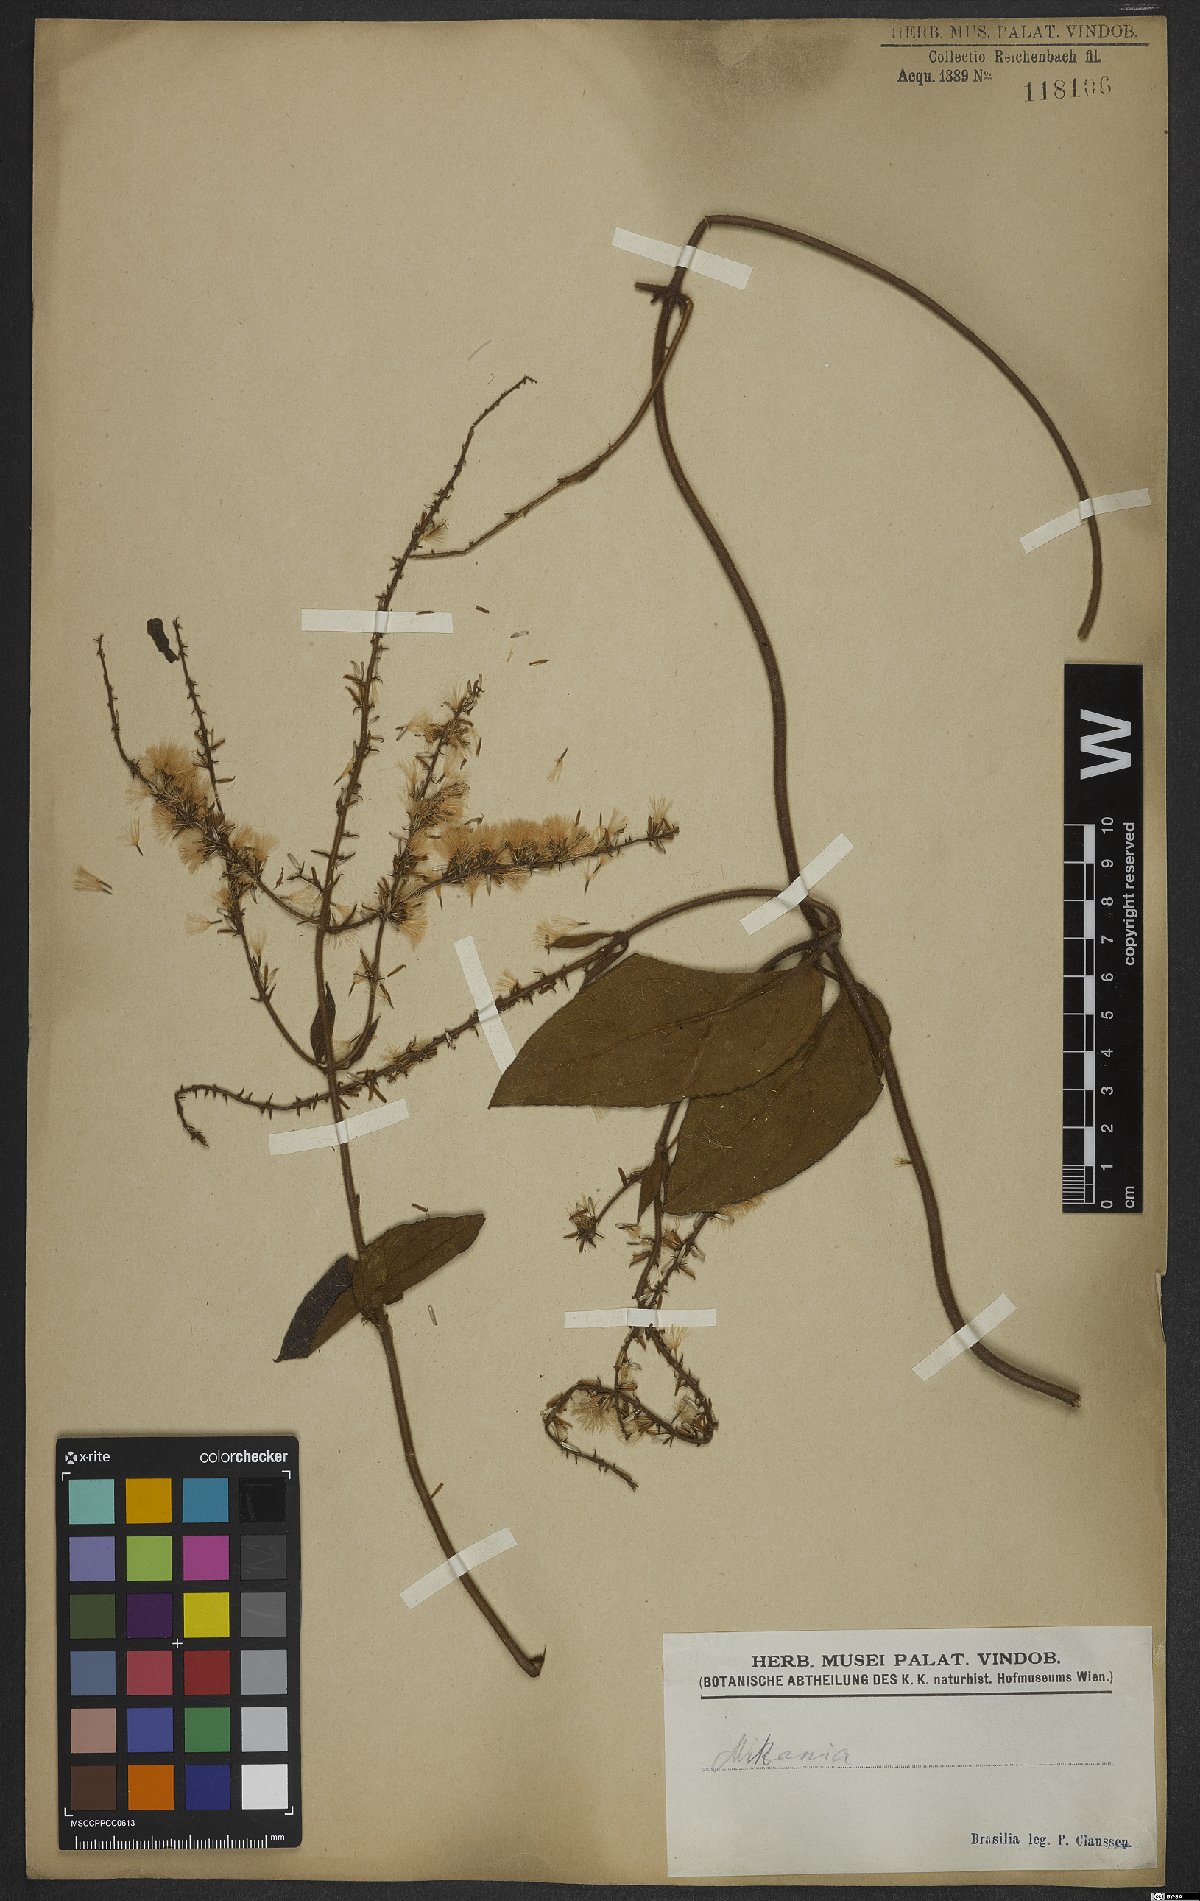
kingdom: Plantae
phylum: Tracheophyta
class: Magnoliopsida
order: Asterales
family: Asteraceae
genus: Mikania
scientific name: Mikania
